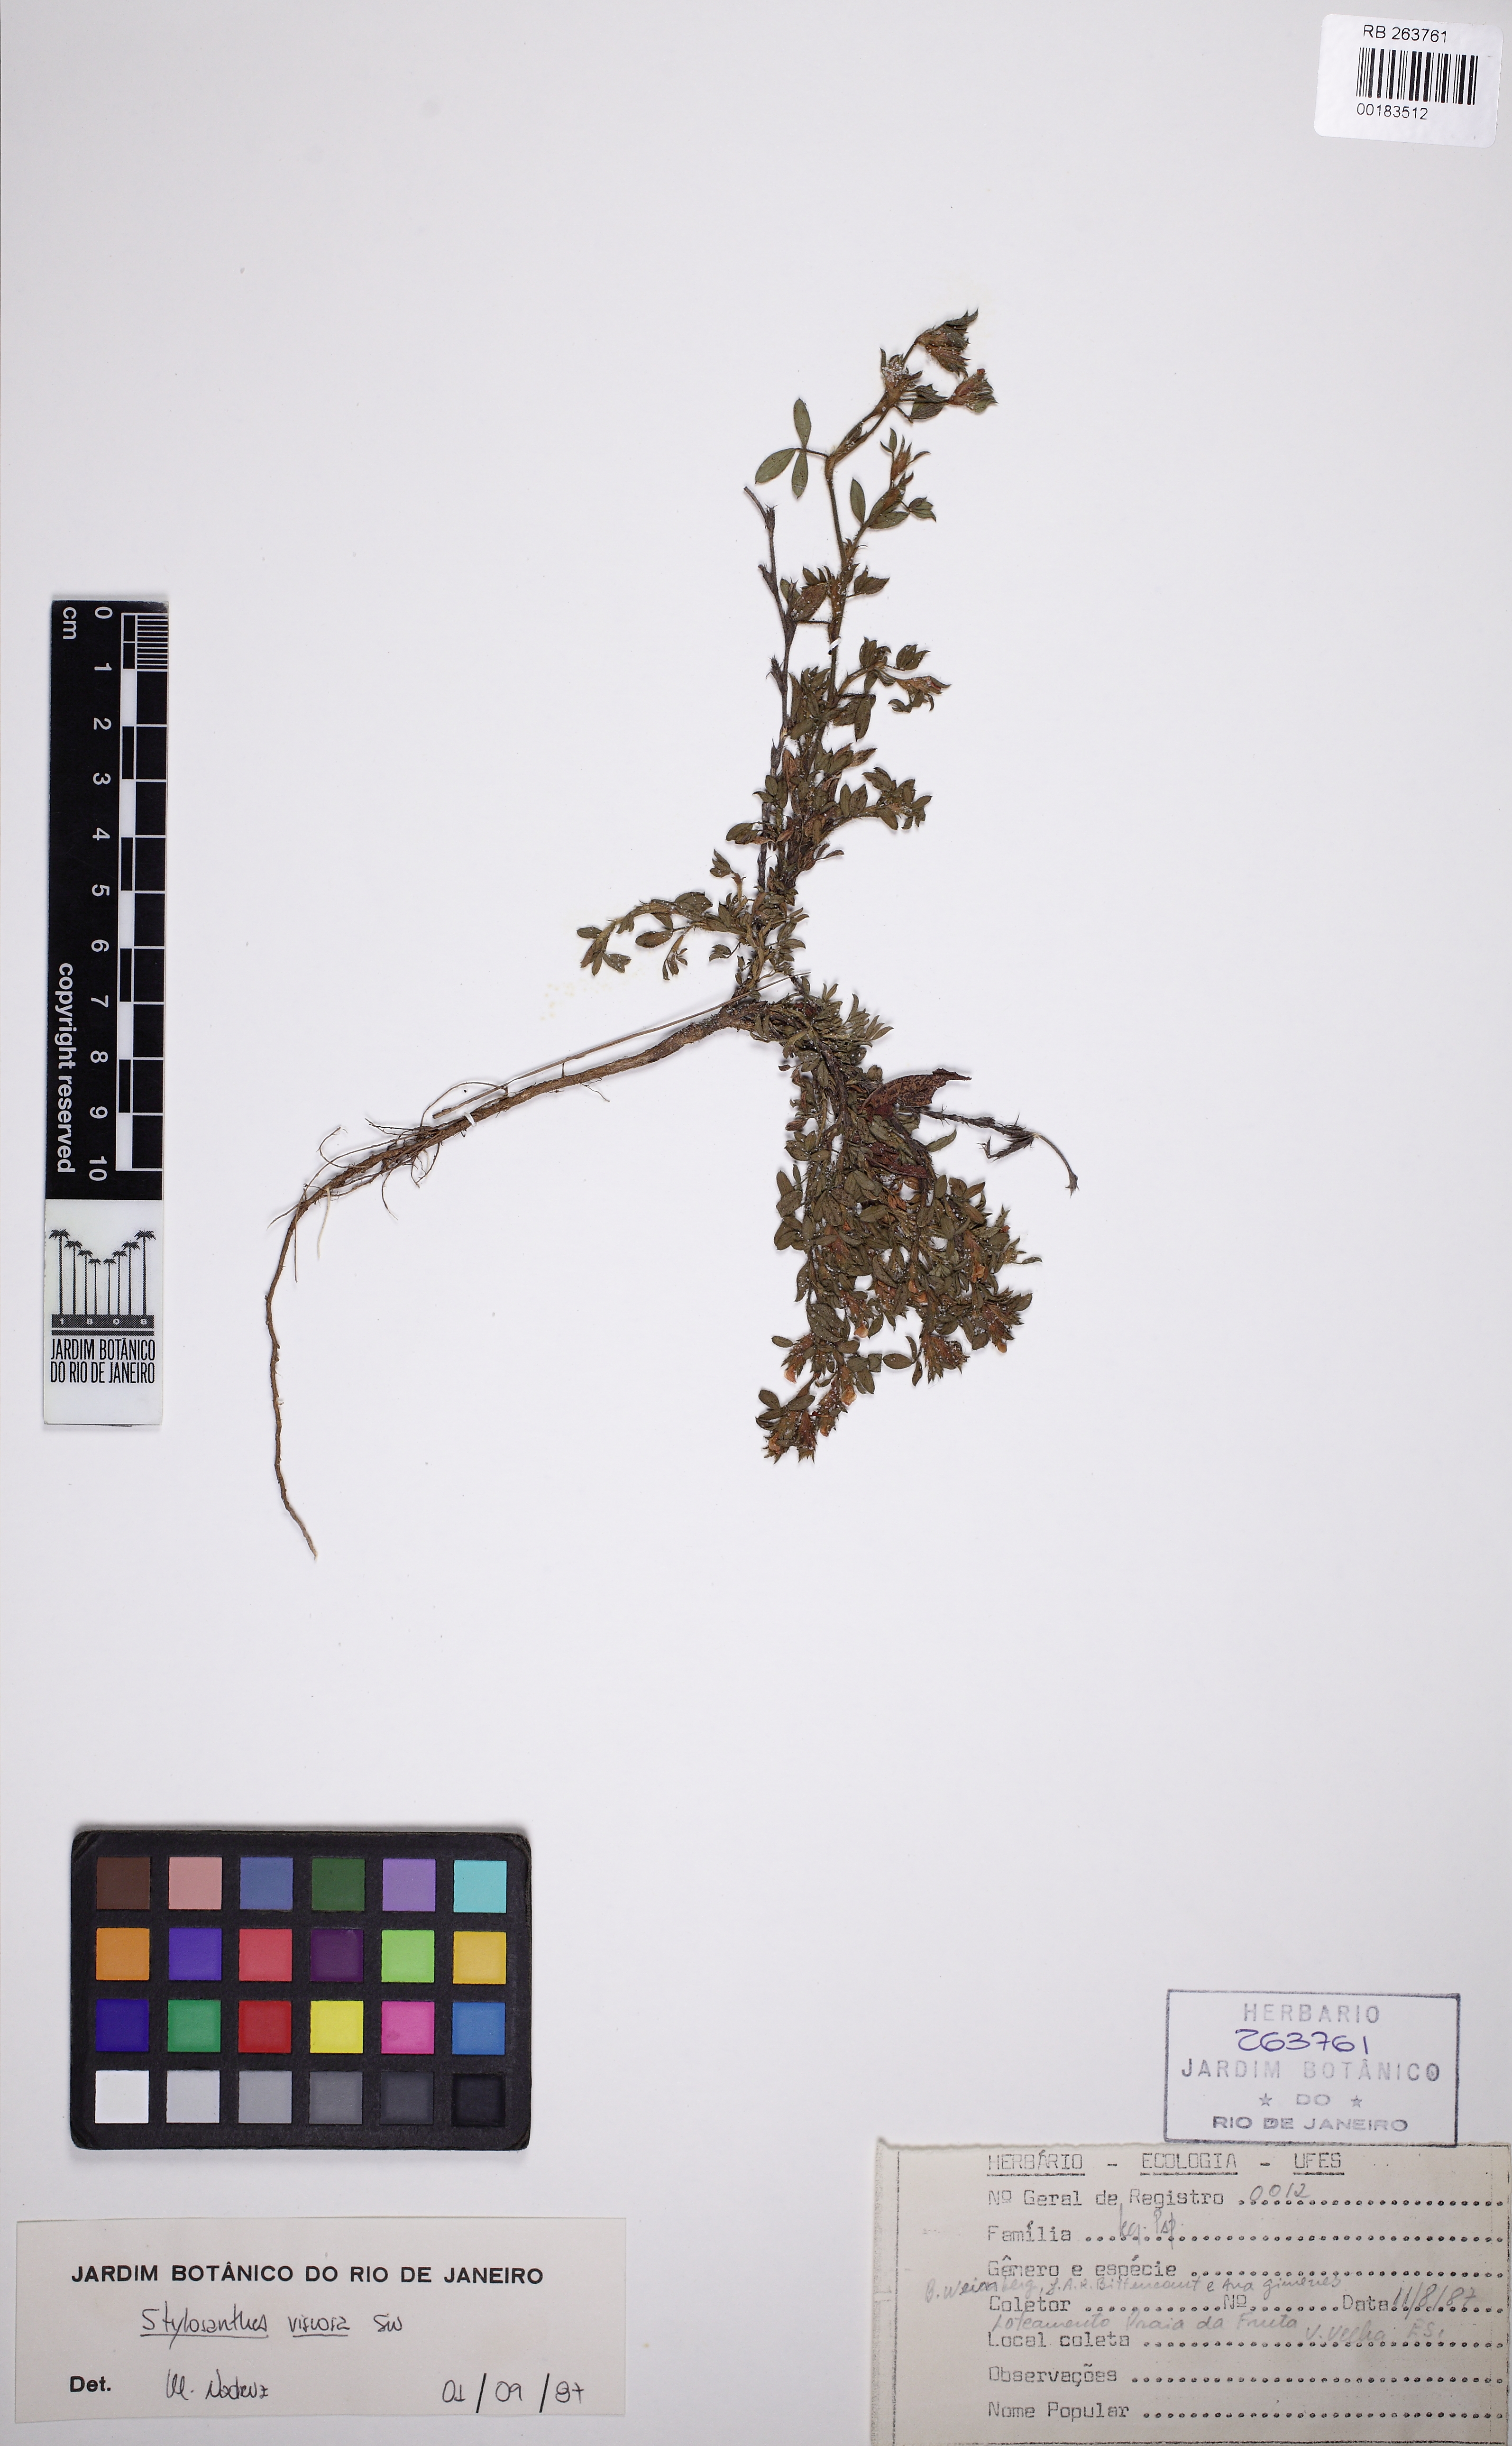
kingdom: Plantae
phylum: Tracheophyta
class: Magnoliopsida
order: Fabales
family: Fabaceae
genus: Stylosanthes
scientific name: Stylosanthes viscosa
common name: Viscid pencil-flower
